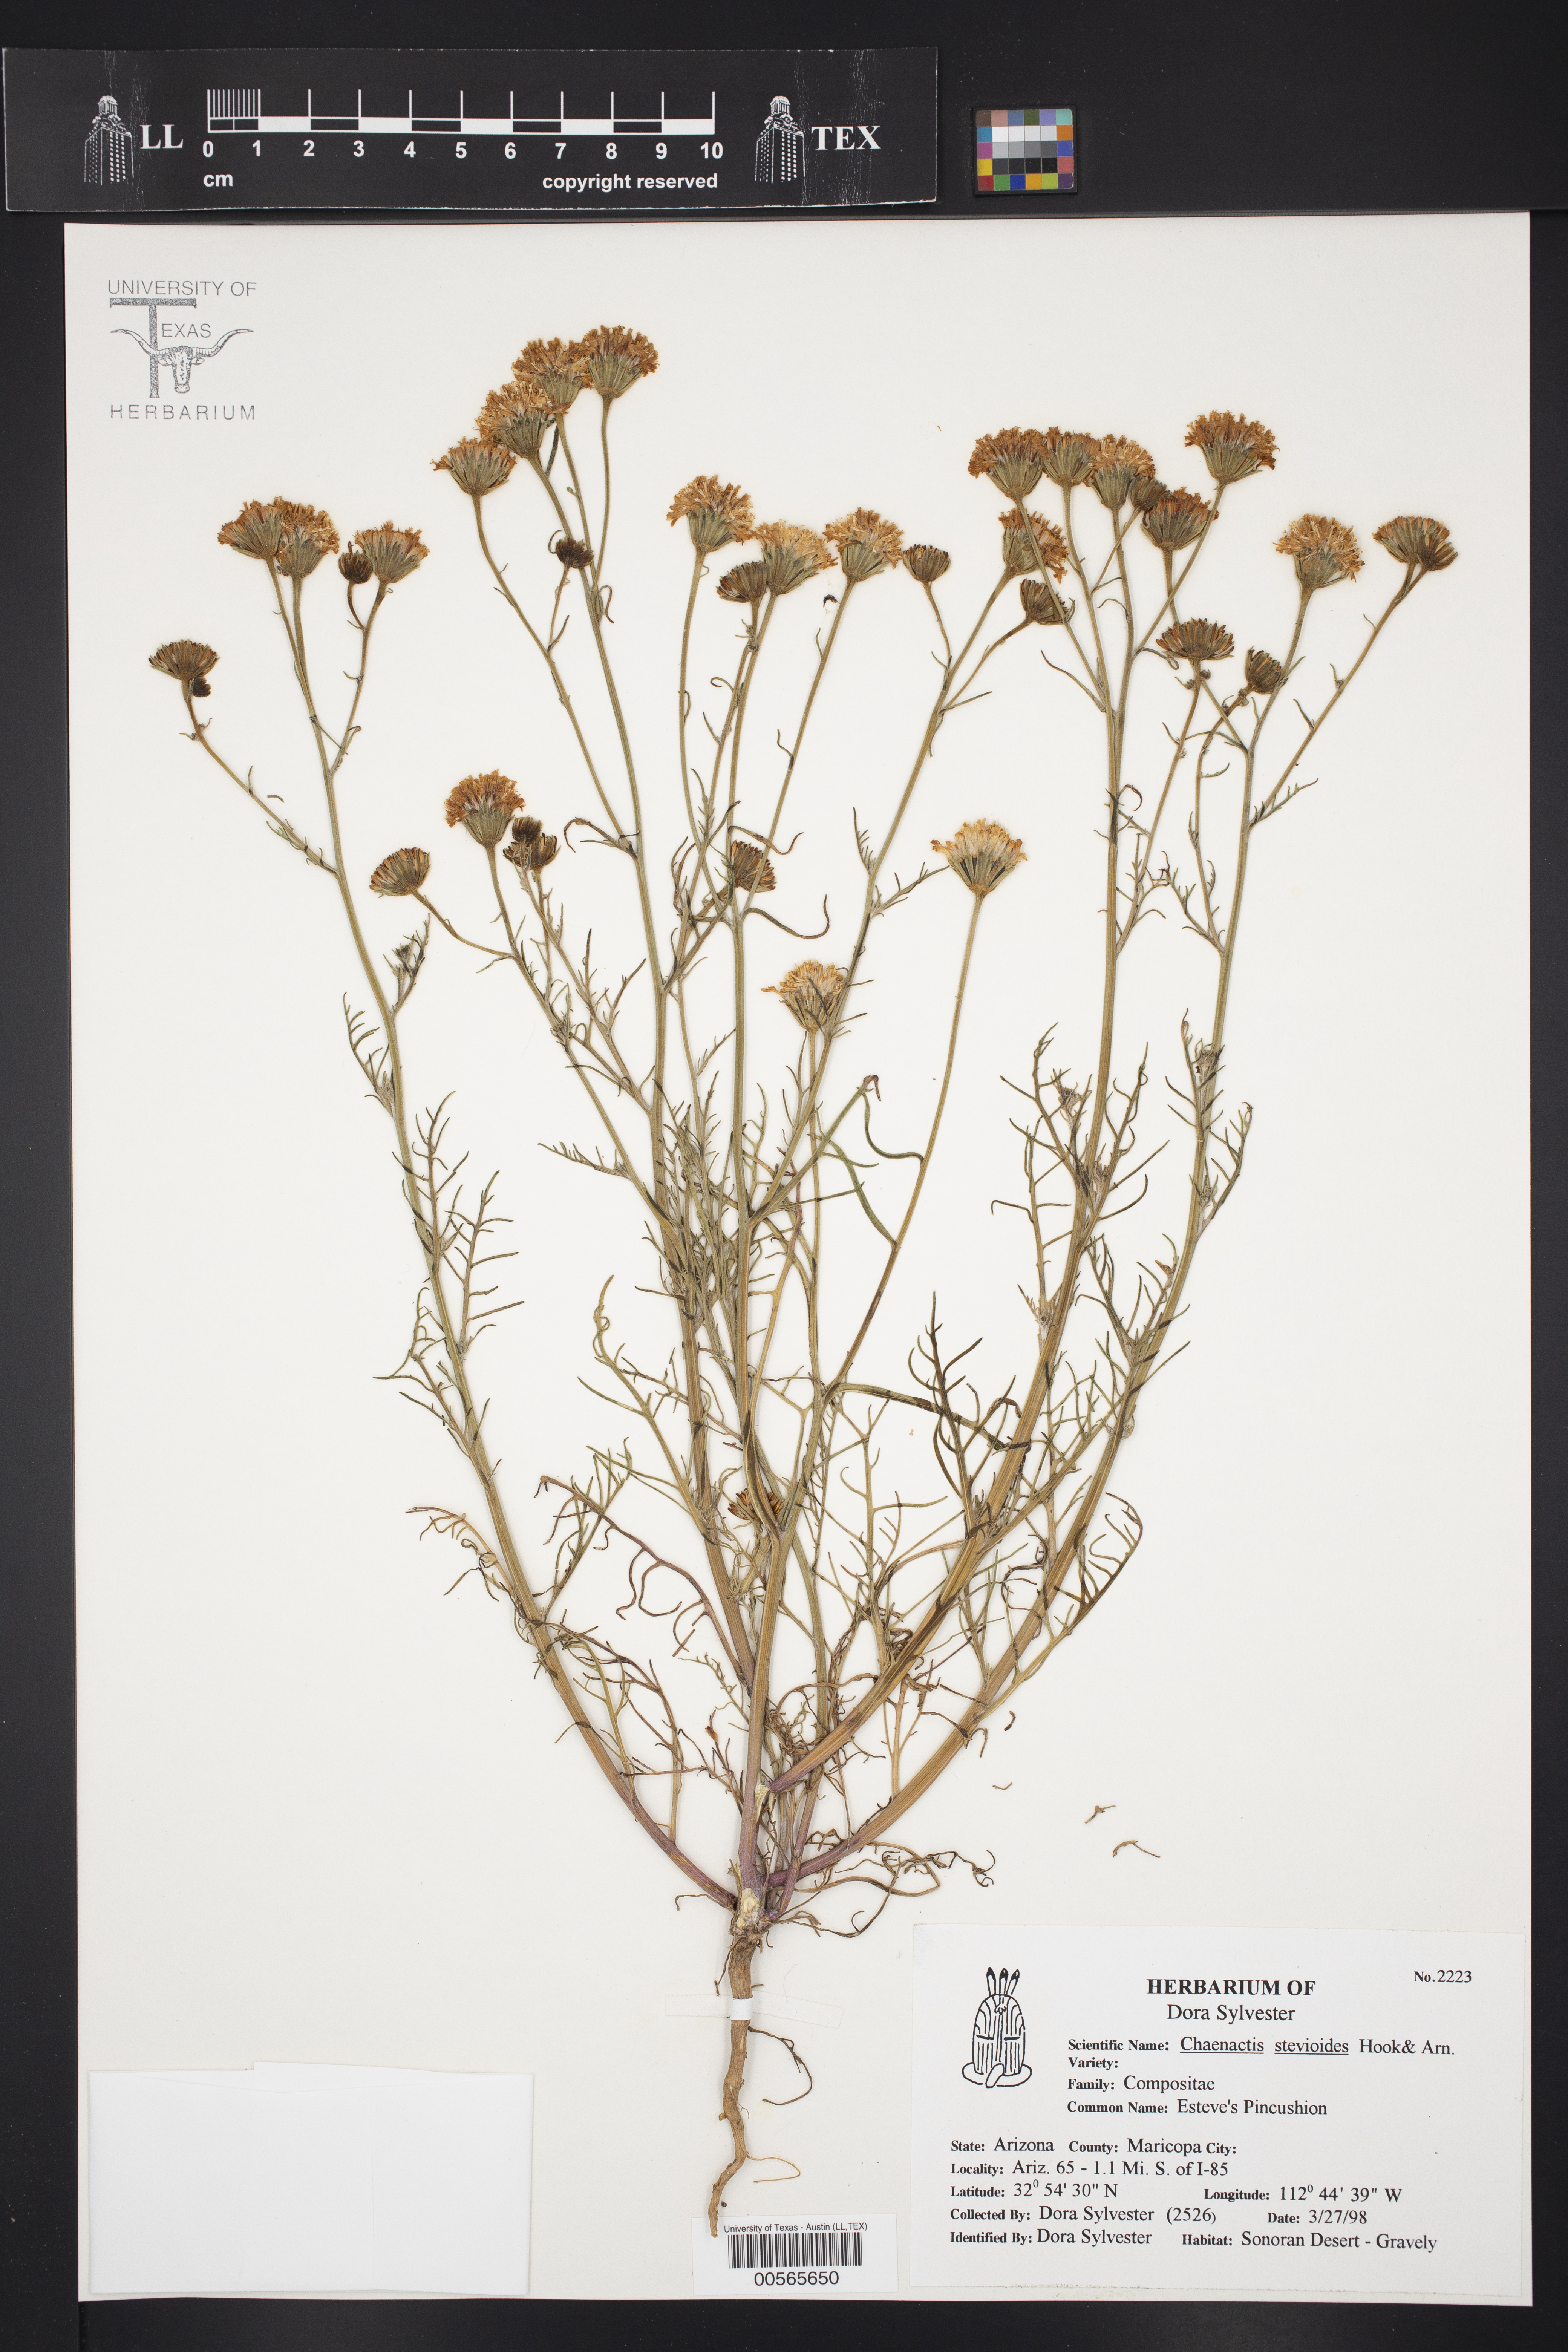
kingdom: Plantae
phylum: Tracheophyta
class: Magnoliopsida
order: Asterales
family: Asteraceae
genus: Chaenactis
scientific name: Chaenactis stevioides
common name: Desert pincushion
